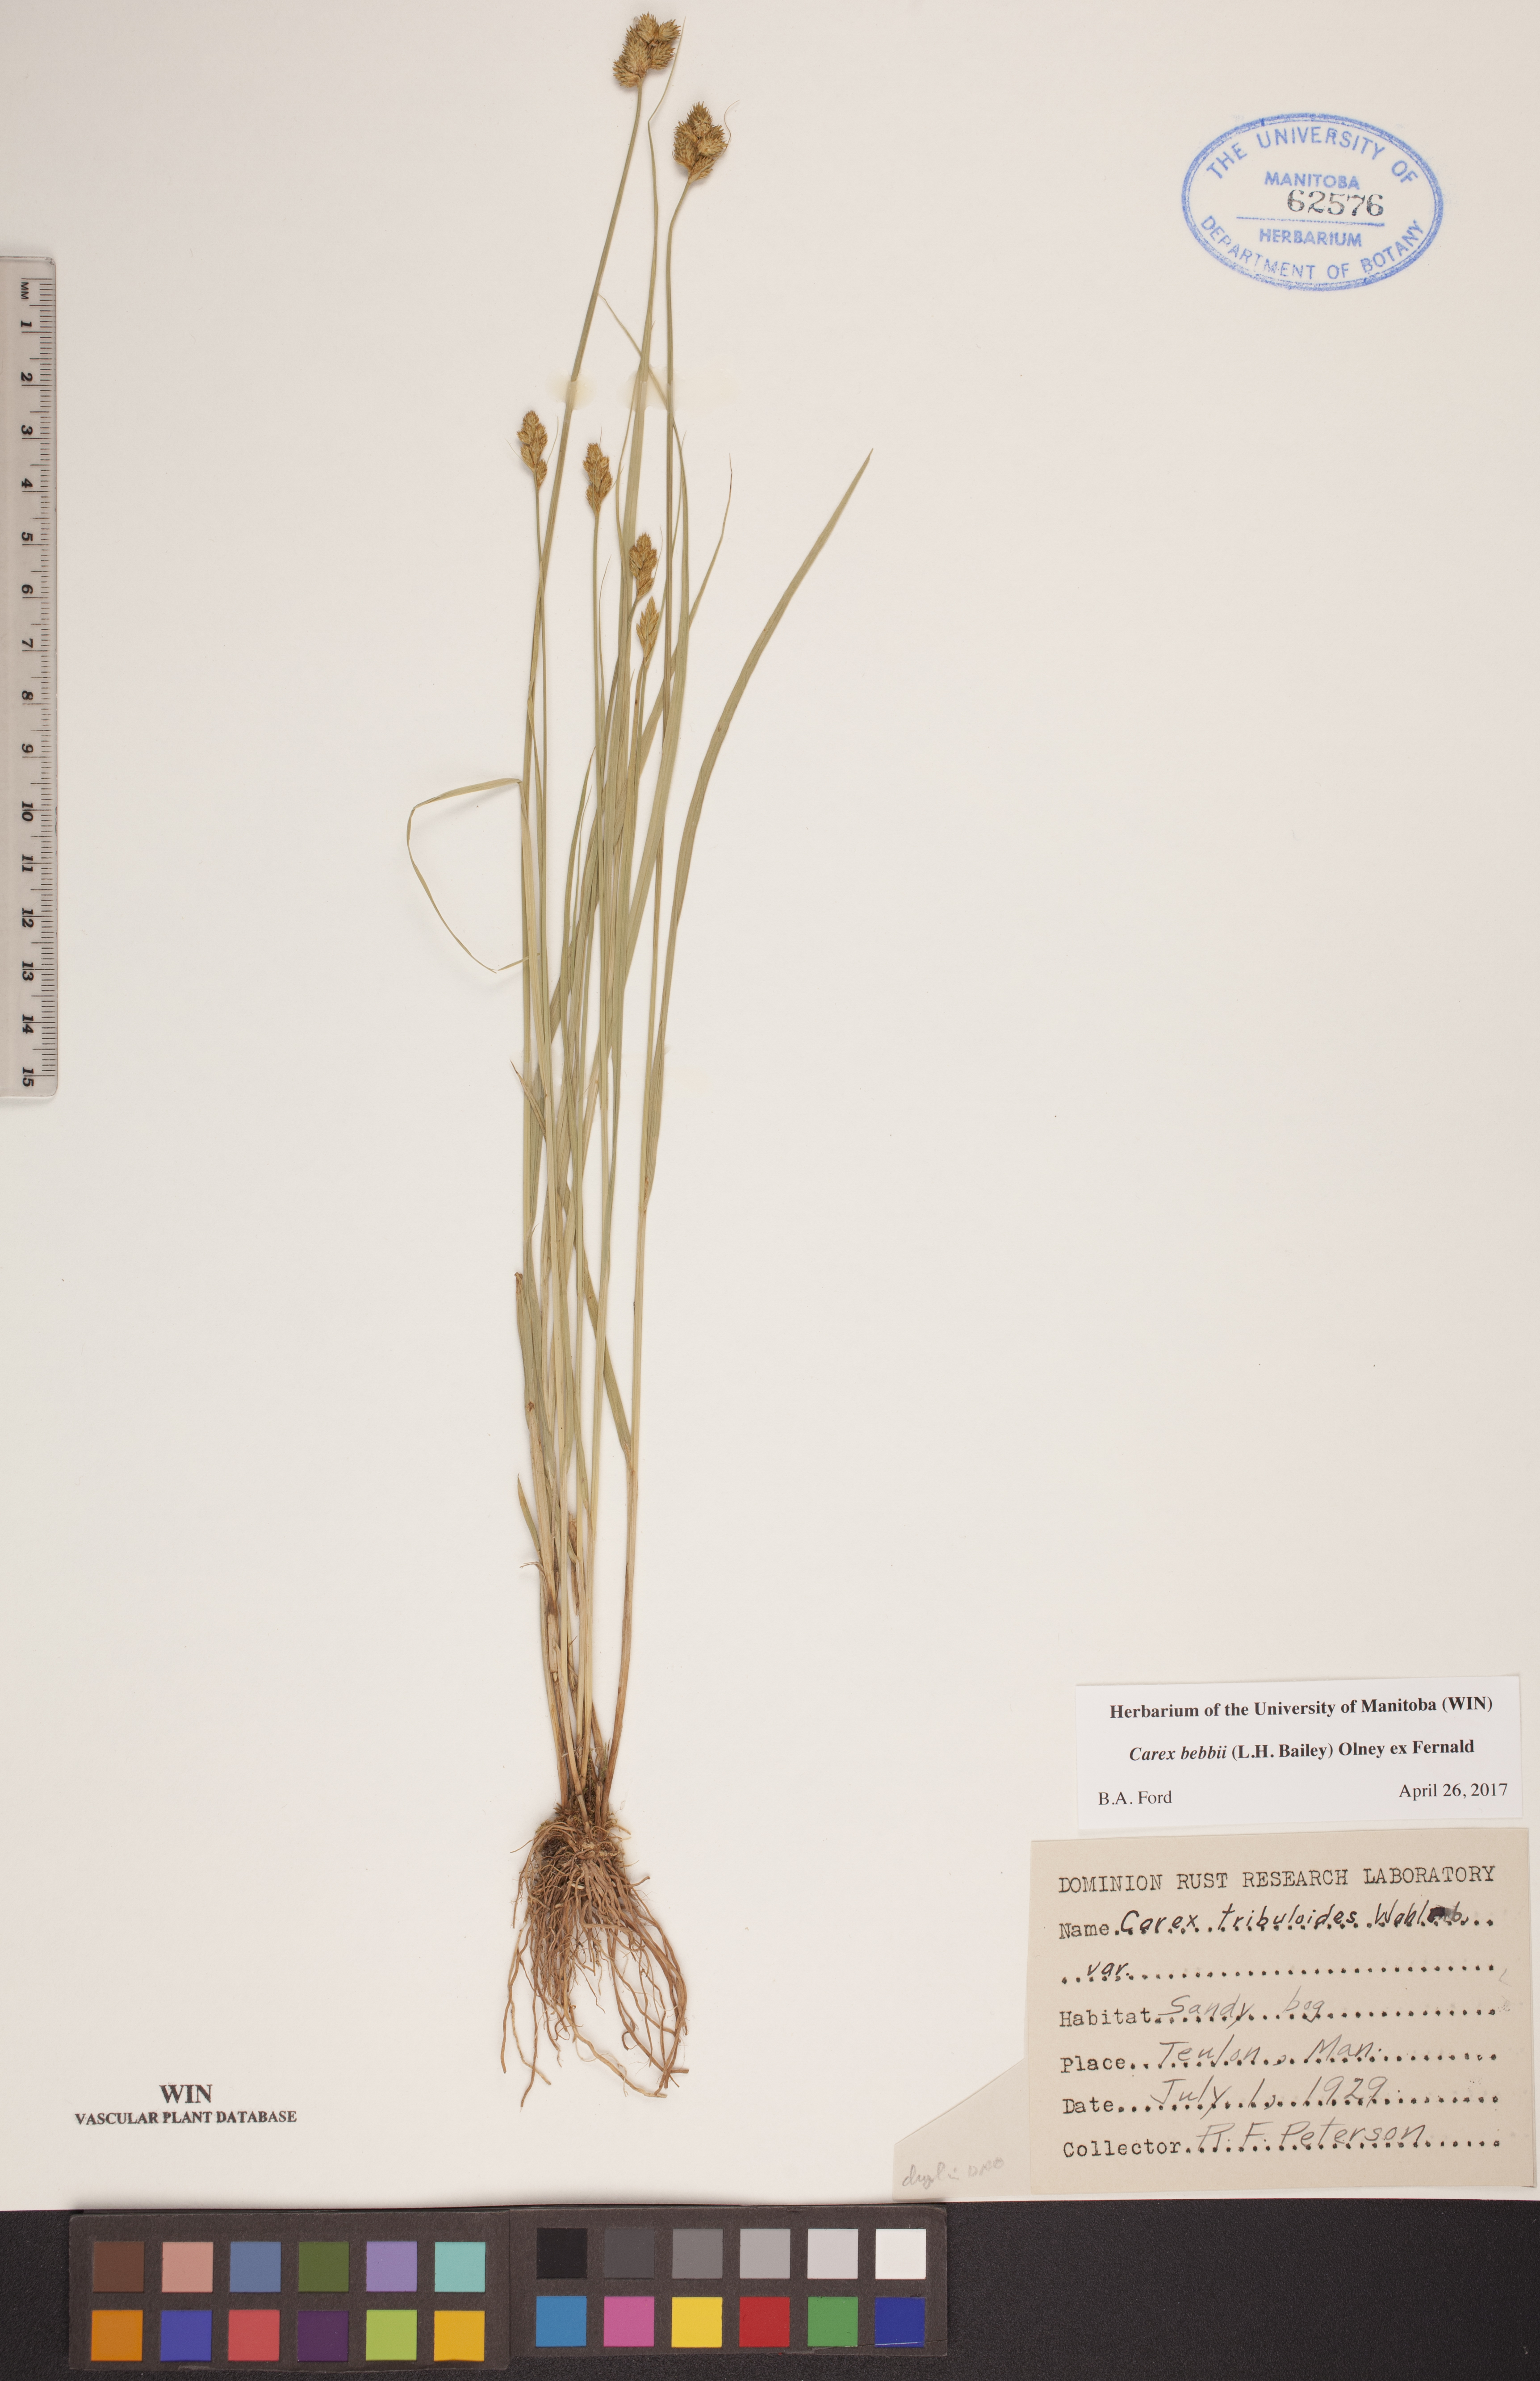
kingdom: Plantae
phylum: Tracheophyta
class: Liliopsida
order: Poales
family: Cyperaceae
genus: Carex
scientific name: Carex bebbii
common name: Bebb's sedge
